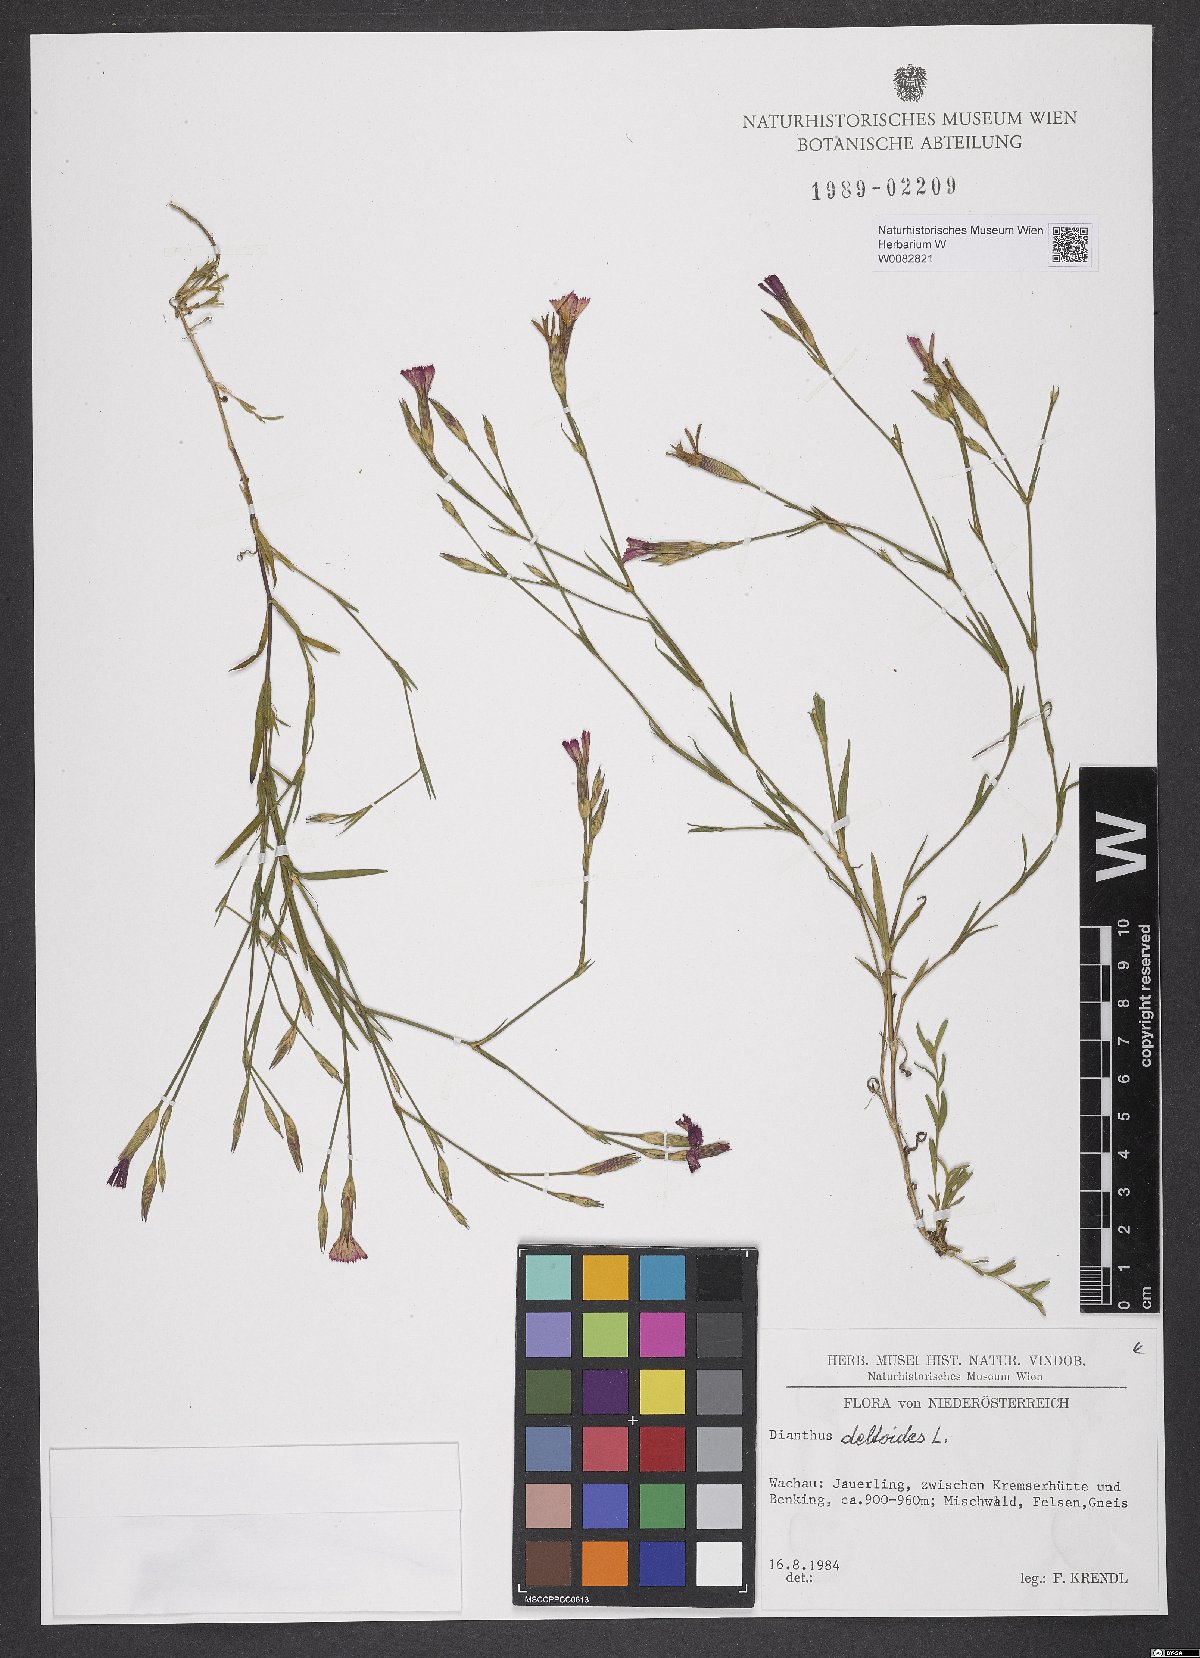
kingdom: Plantae
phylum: Tracheophyta
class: Magnoliopsida
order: Caryophyllales
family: Caryophyllaceae
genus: Dianthus
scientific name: Dianthus deltoides
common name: Maiden pink
